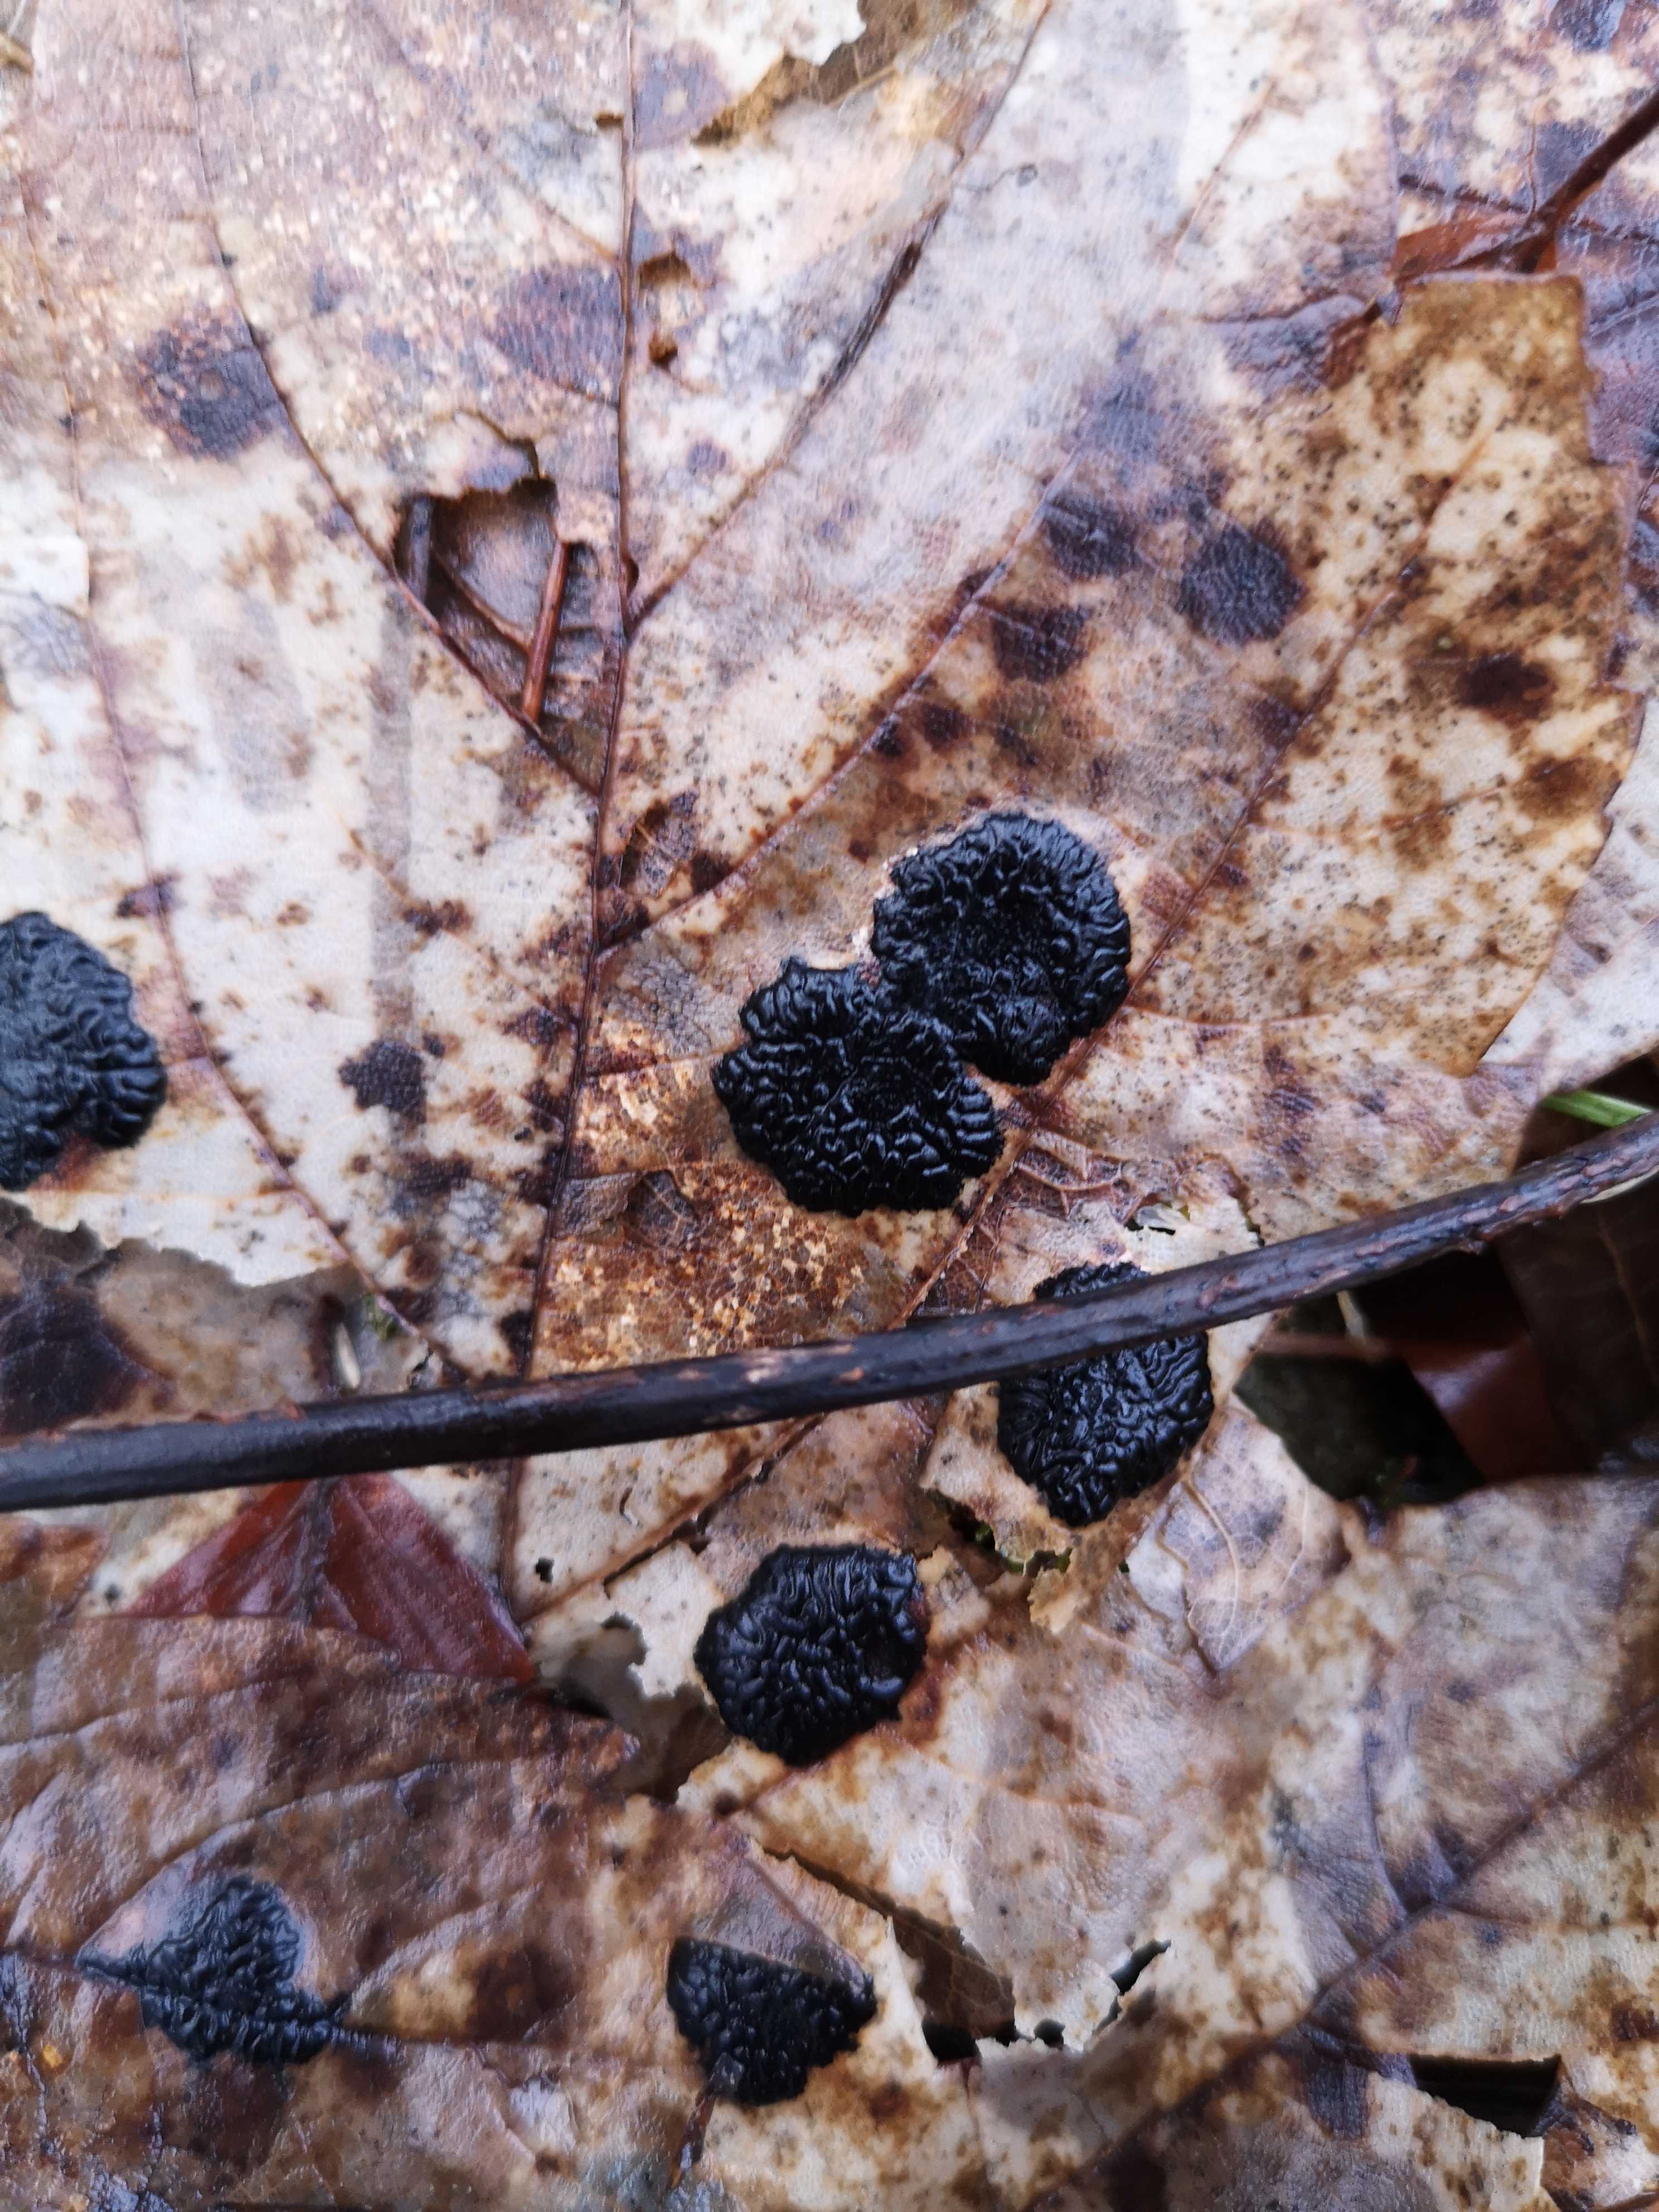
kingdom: Fungi
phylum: Ascomycota
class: Leotiomycetes
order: Rhytismatales
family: Rhytismataceae
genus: Rhytisma
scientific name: Rhytisma acerinum
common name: ahorn-rynkeplet
